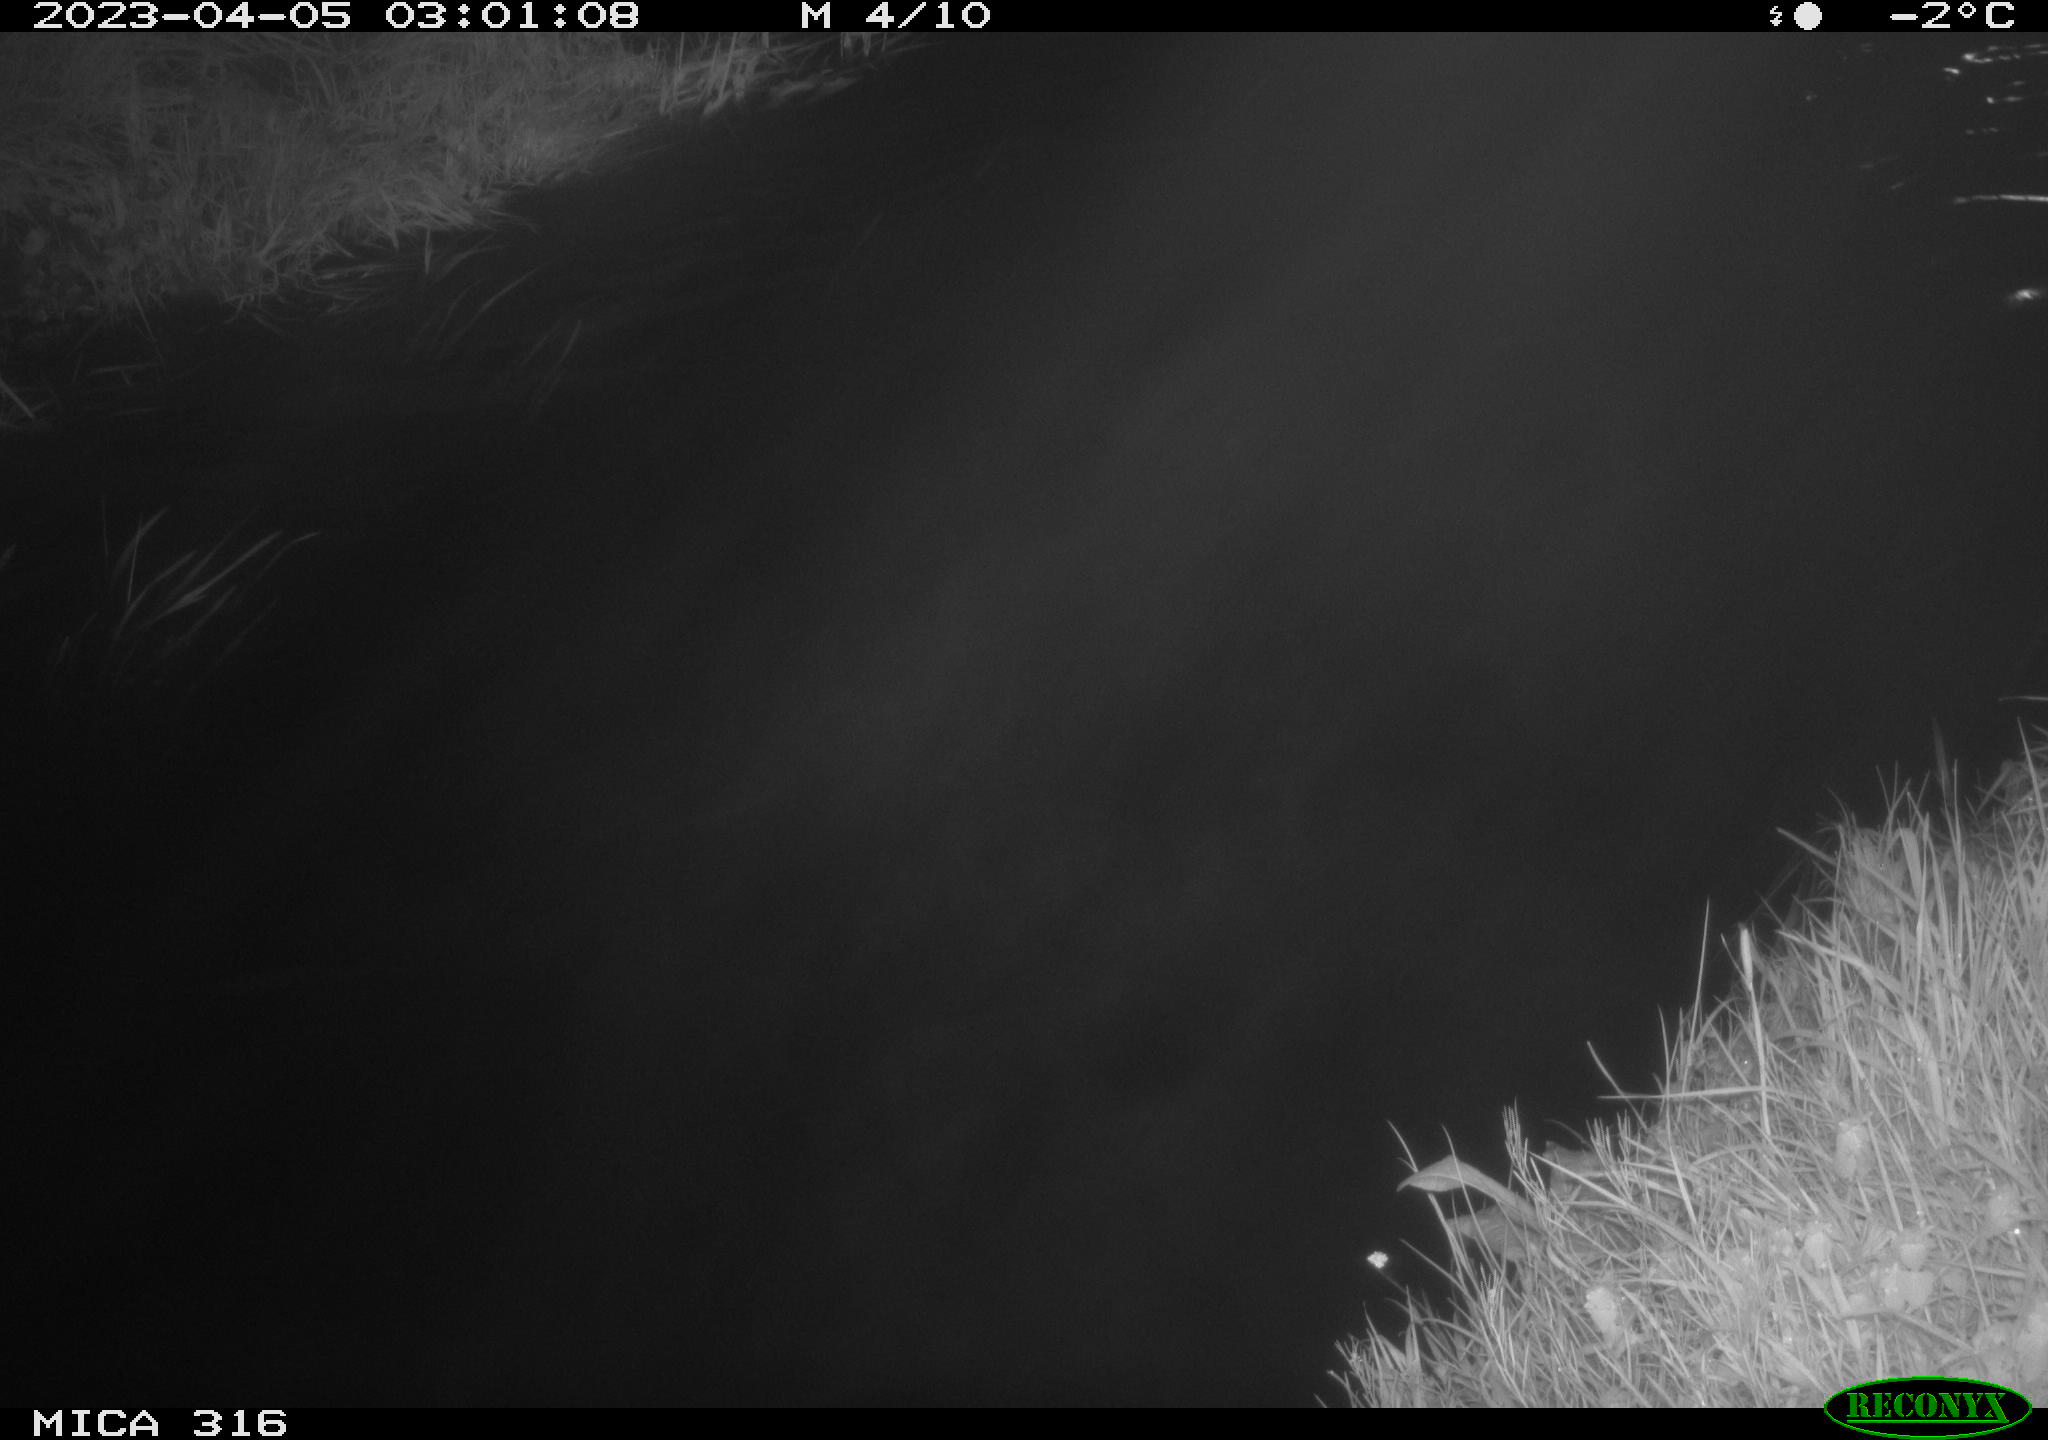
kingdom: Animalia
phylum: Chordata
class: Aves
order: Anseriformes
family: Anatidae
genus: Anas
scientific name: Anas
